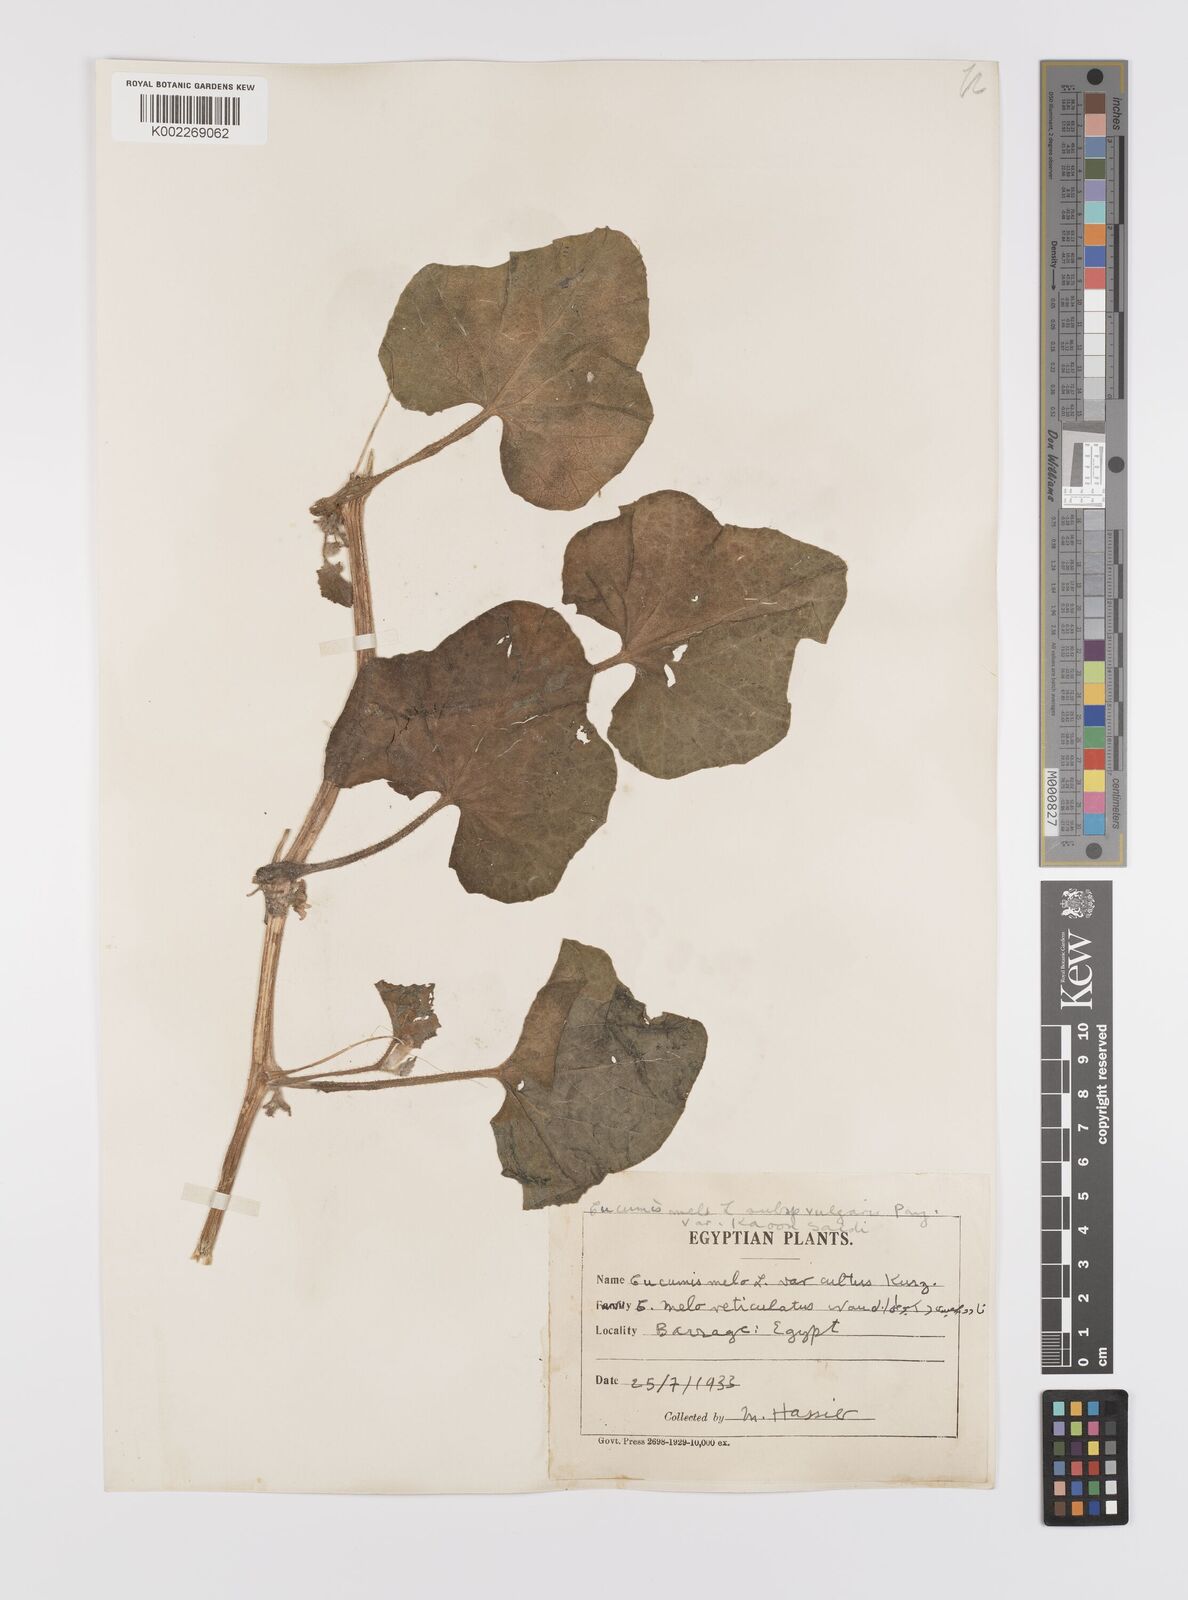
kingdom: Plantae
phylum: Tracheophyta
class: Magnoliopsida
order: Cucurbitales
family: Cucurbitaceae
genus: Cucumis
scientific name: Cucumis melo
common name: Melon
